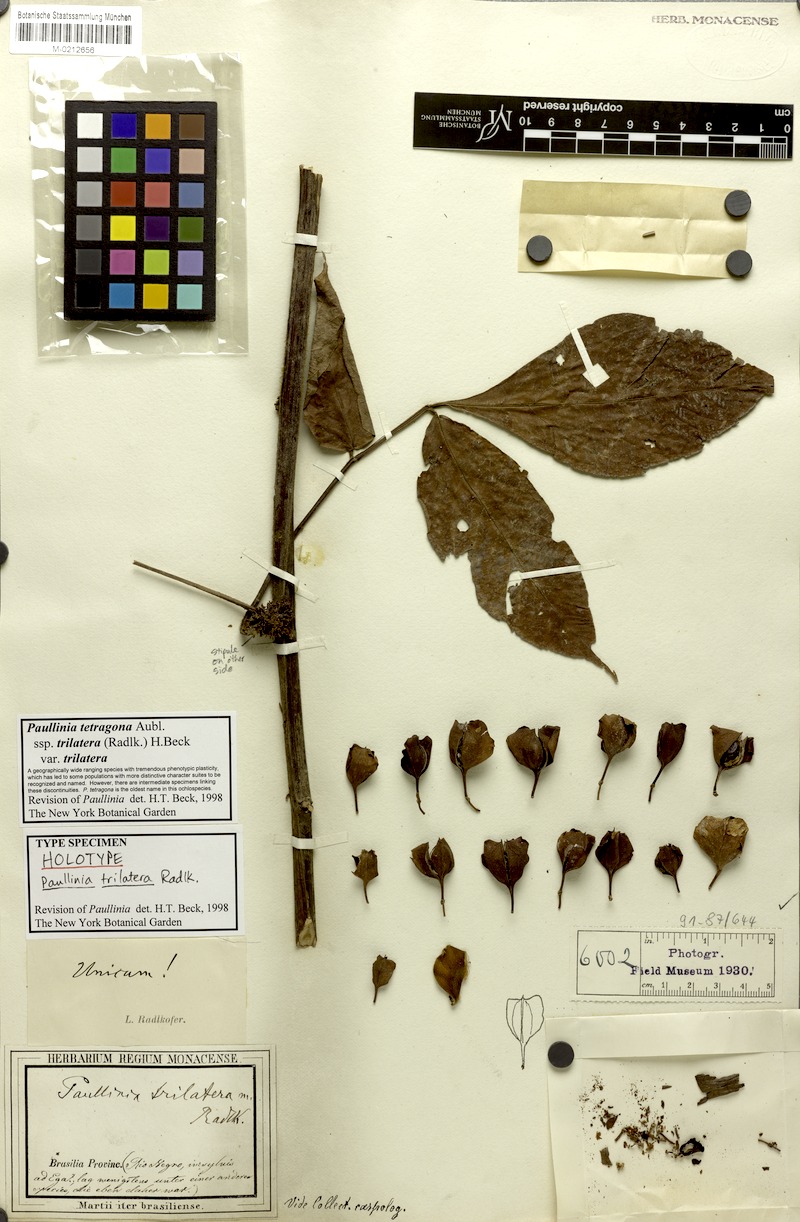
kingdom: Plantae
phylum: Tracheophyta
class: Magnoliopsida
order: Sapindales
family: Sapindaceae
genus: Paullinia
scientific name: Paullinia tetragona
